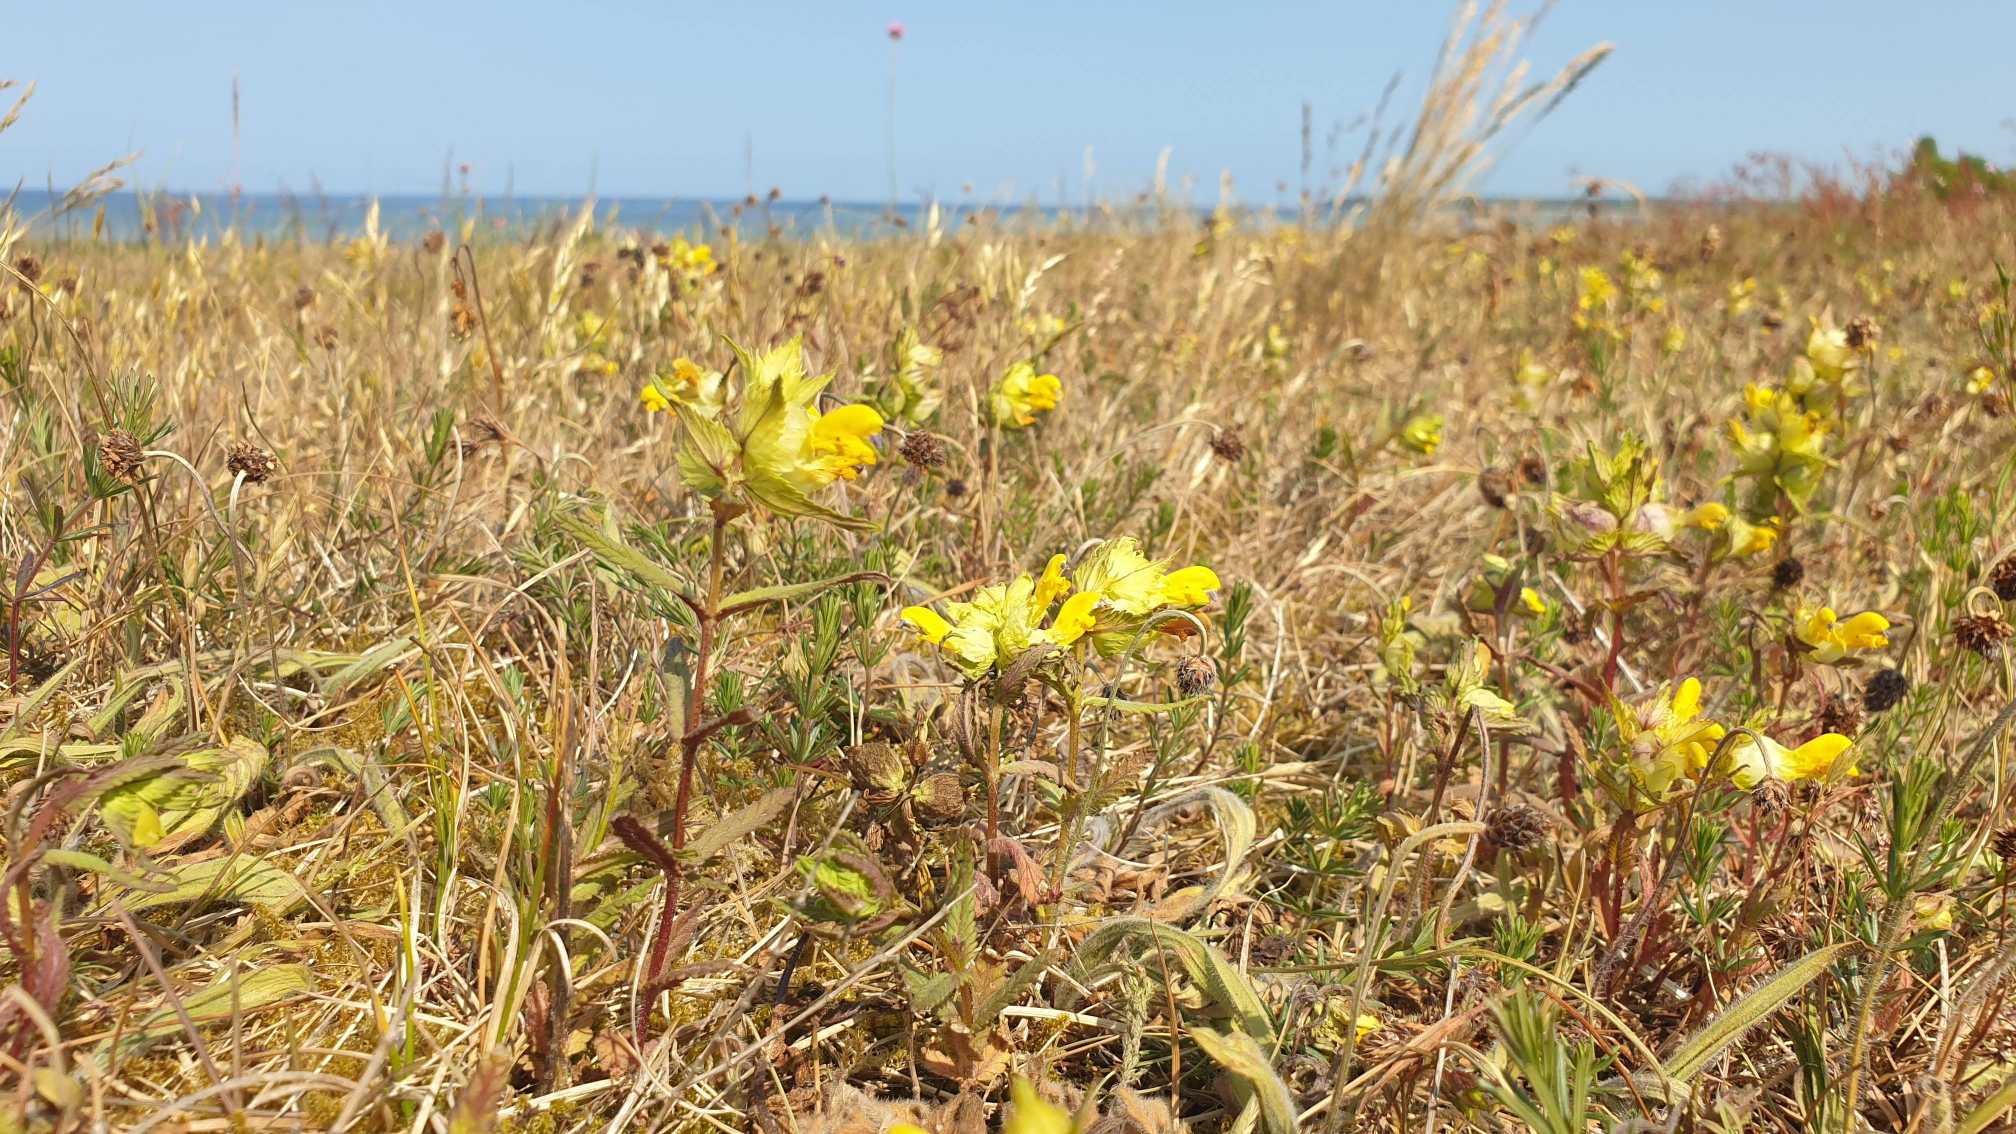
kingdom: Plantae
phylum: Tracheophyta
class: Magnoliopsida
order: Lamiales
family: Orobanchaceae
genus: Rhinanthus
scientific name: Rhinanthus
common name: Stor skjaller
